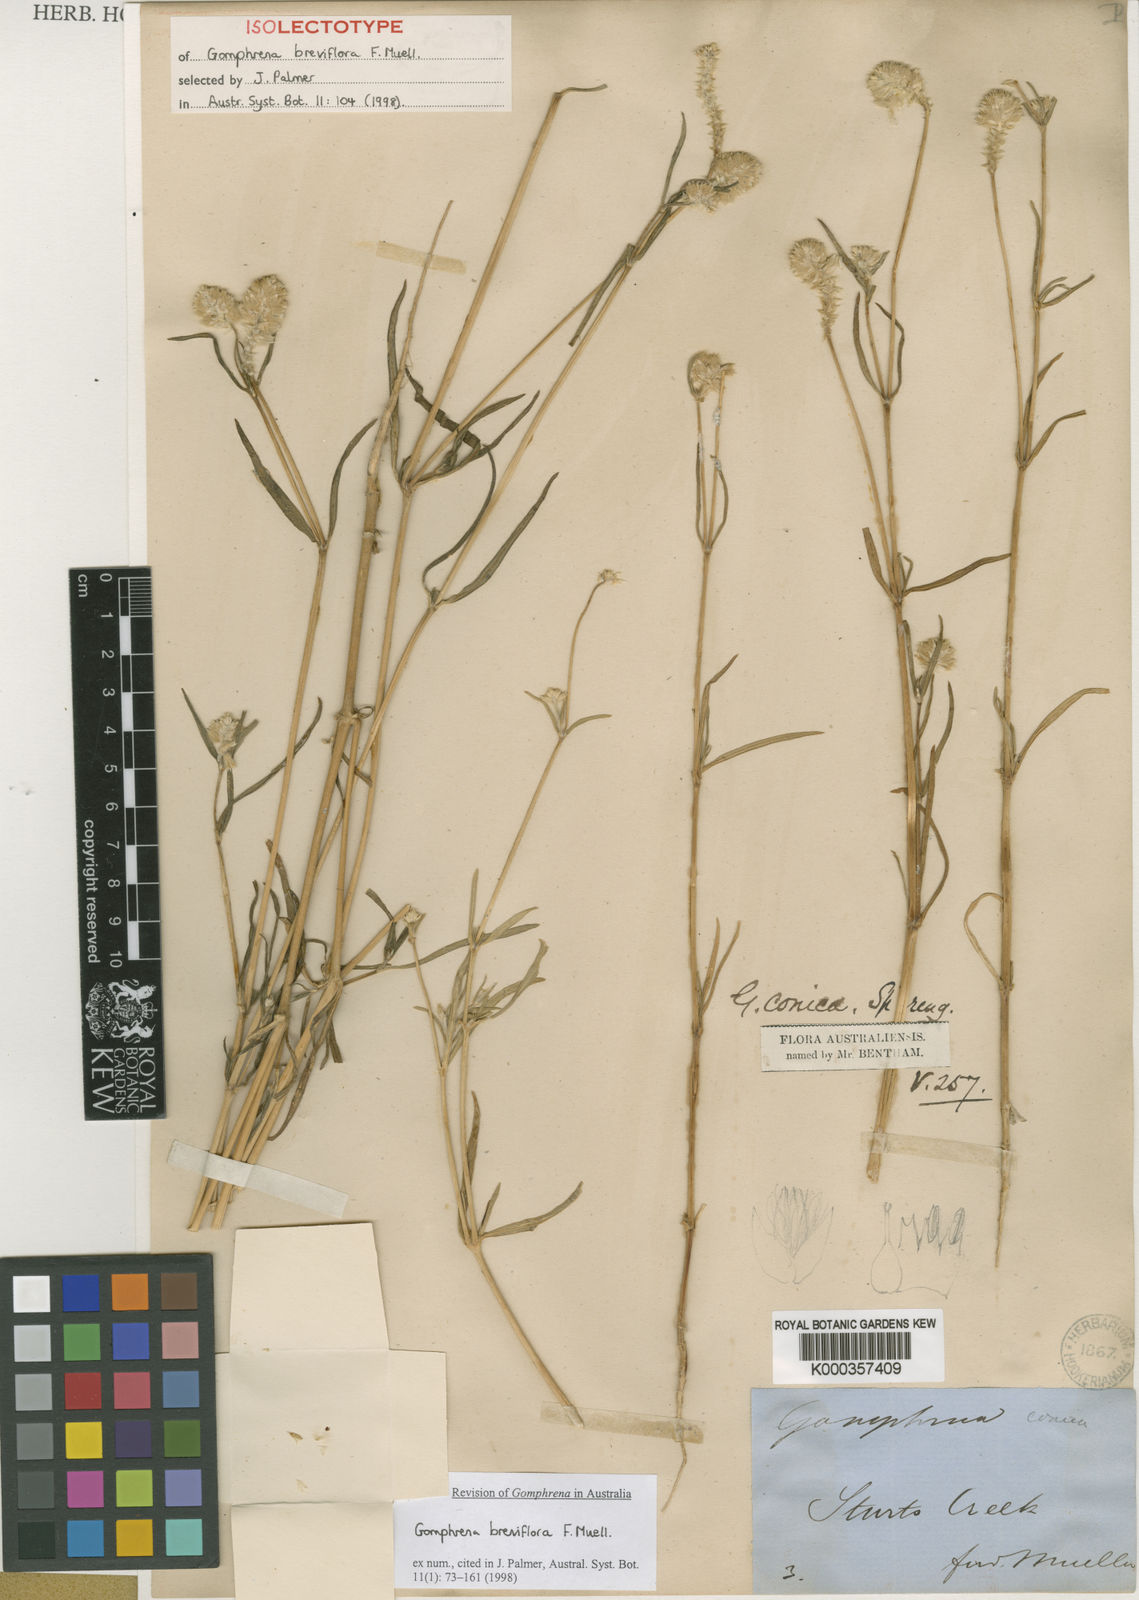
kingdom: Plantae
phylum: Tracheophyta
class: Magnoliopsida
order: Caryophyllales
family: Amaranthaceae
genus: Gomphrena
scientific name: Gomphrena conica
